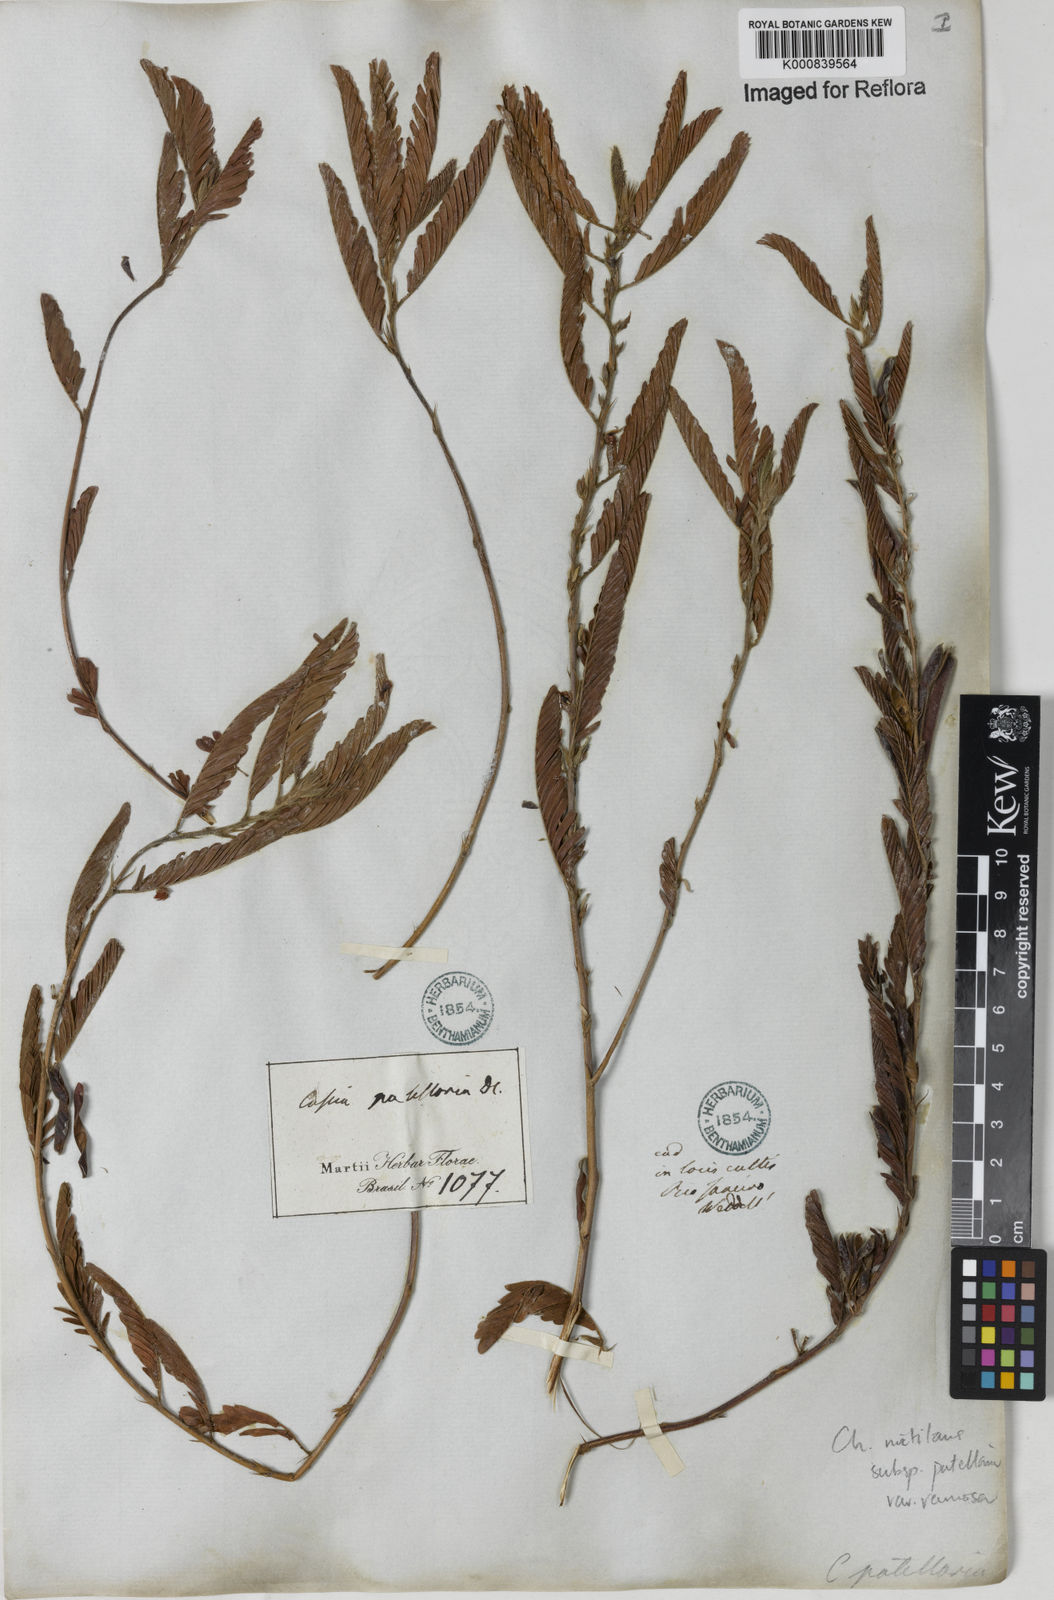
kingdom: Plantae
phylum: Tracheophyta
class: Magnoliopsida
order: Fabales
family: Fabaceae
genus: Chamaecrista
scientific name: Chamaecrista nictitans
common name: Sensitive cassia
